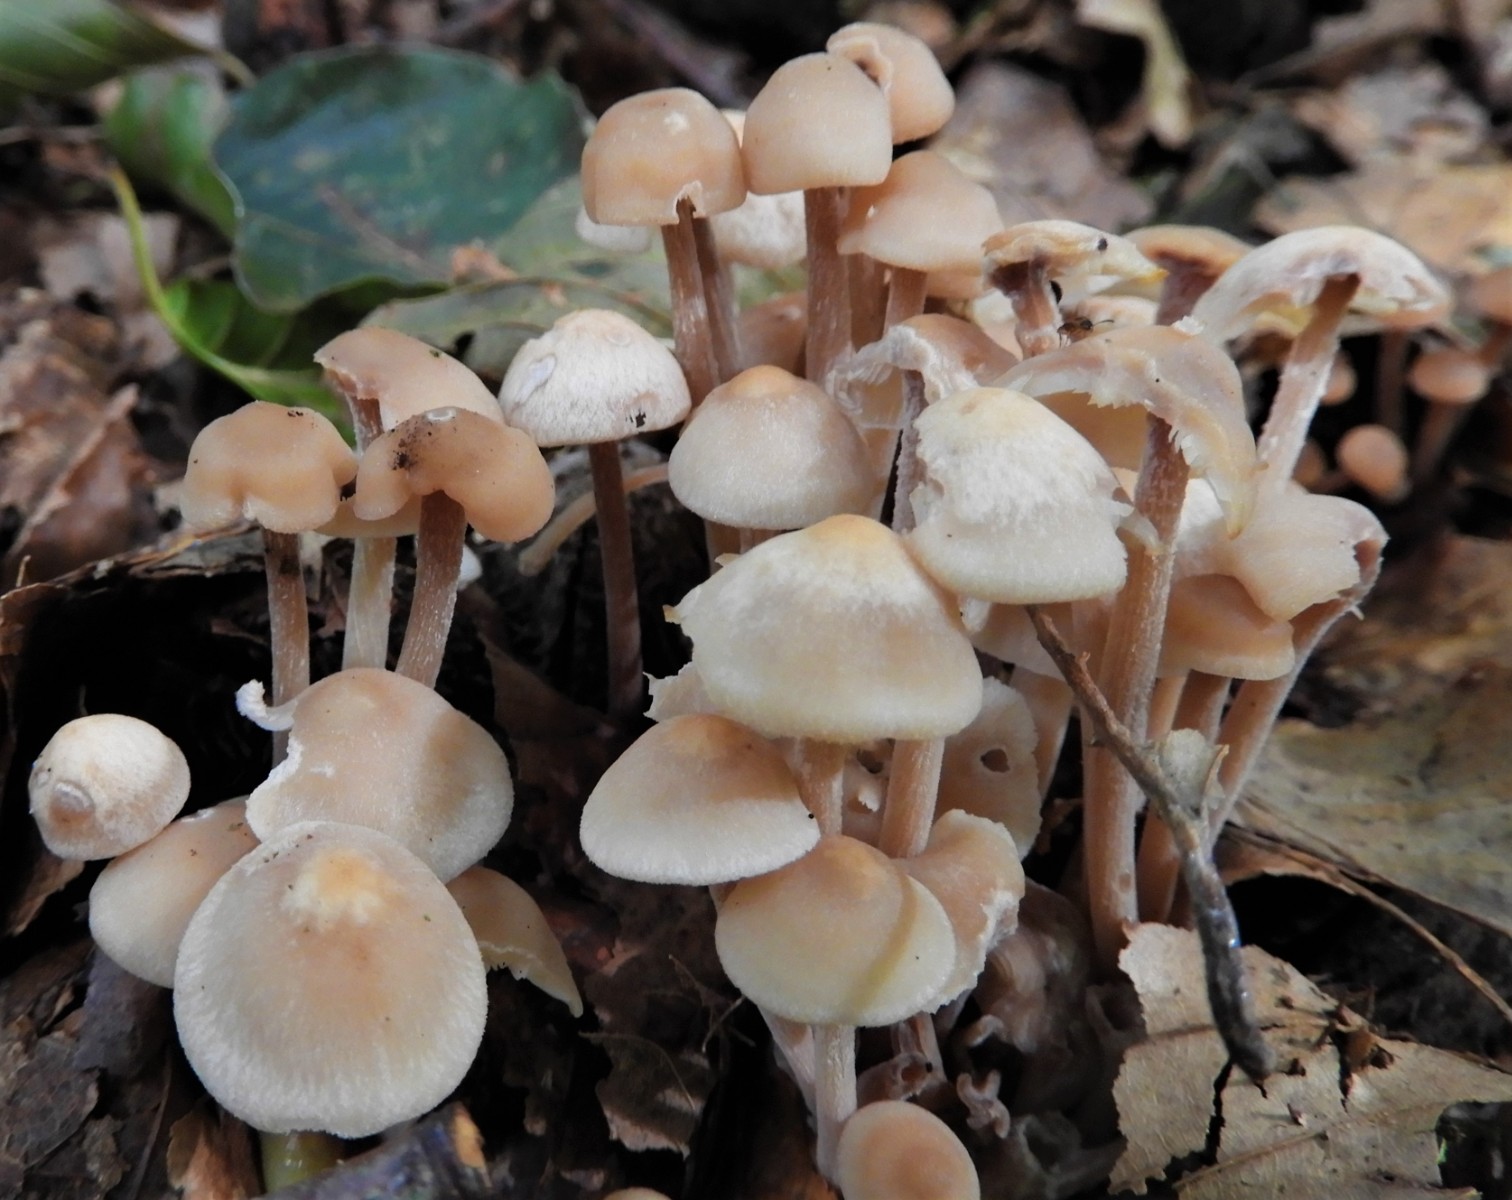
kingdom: Fungi
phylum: Basidiomycota
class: Agaricomycetes
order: Agaricales
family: Omphalotaceae
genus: Collybiopsis
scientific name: Collybiopsis confluens
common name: knippe-fladhat
